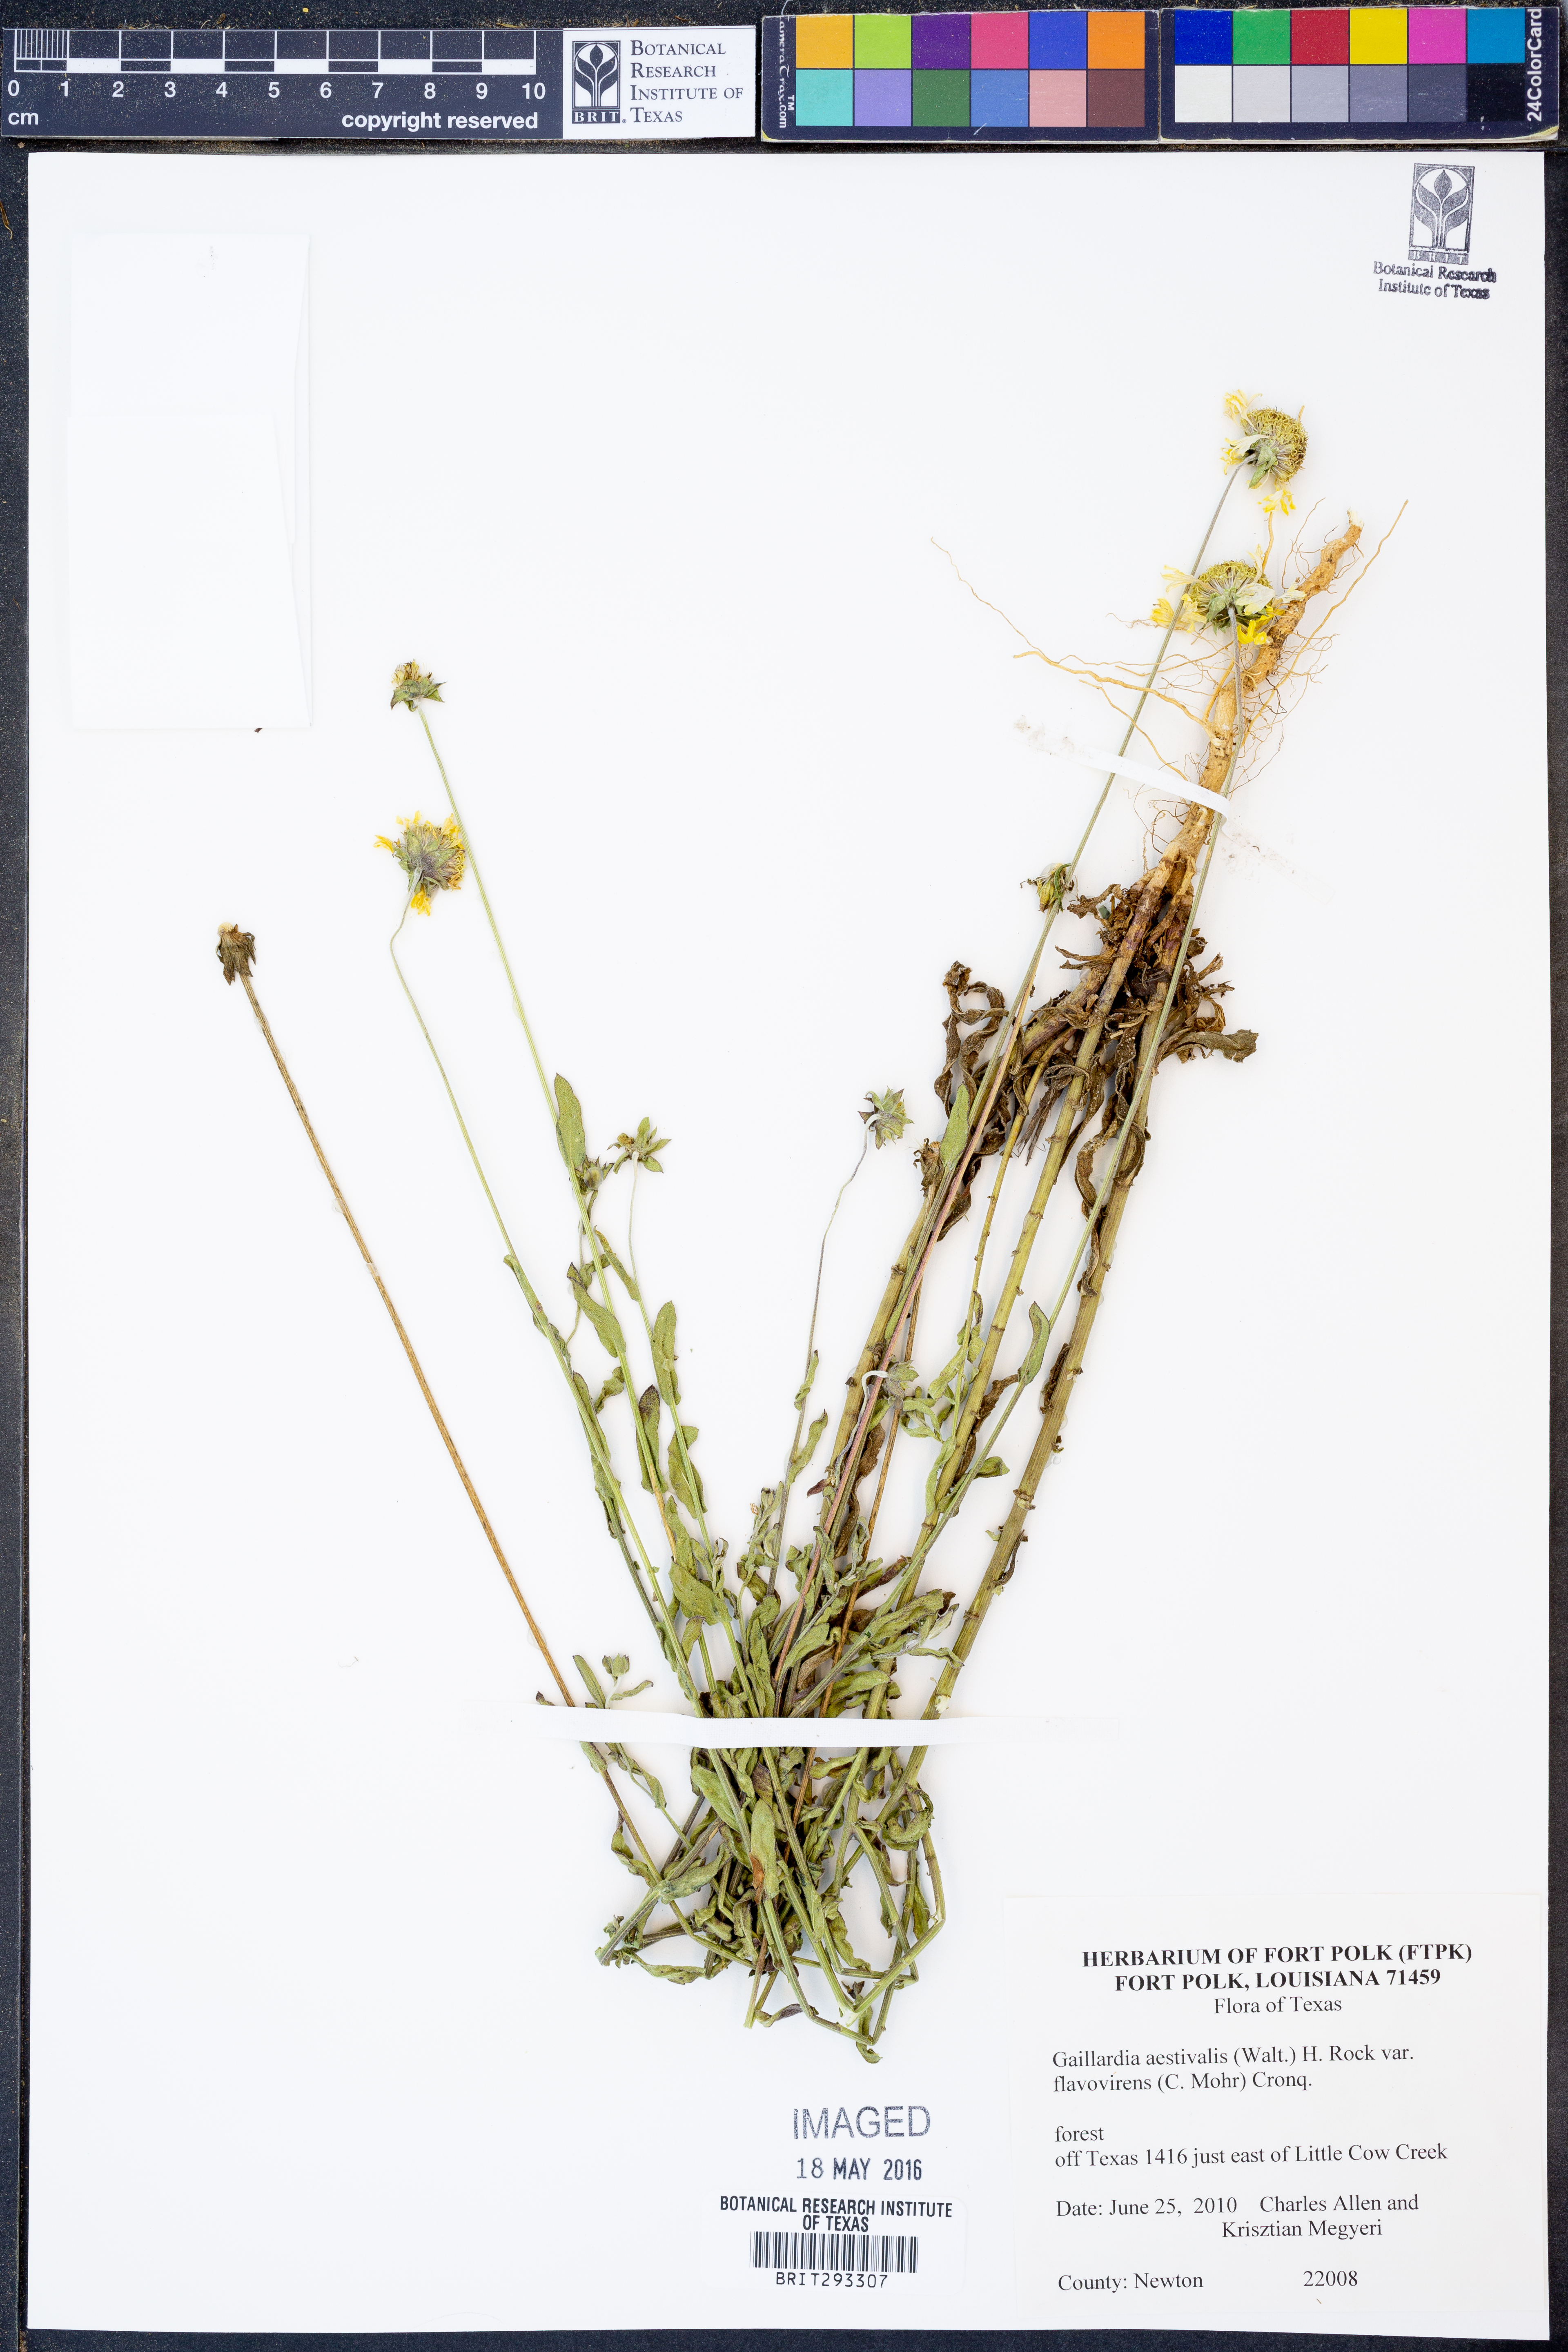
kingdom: Plantae
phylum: Tracheophyta
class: Magnoliopsida
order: Asterales
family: Asteraceae
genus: Gaillardia
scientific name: Gaillardia aestivalis
